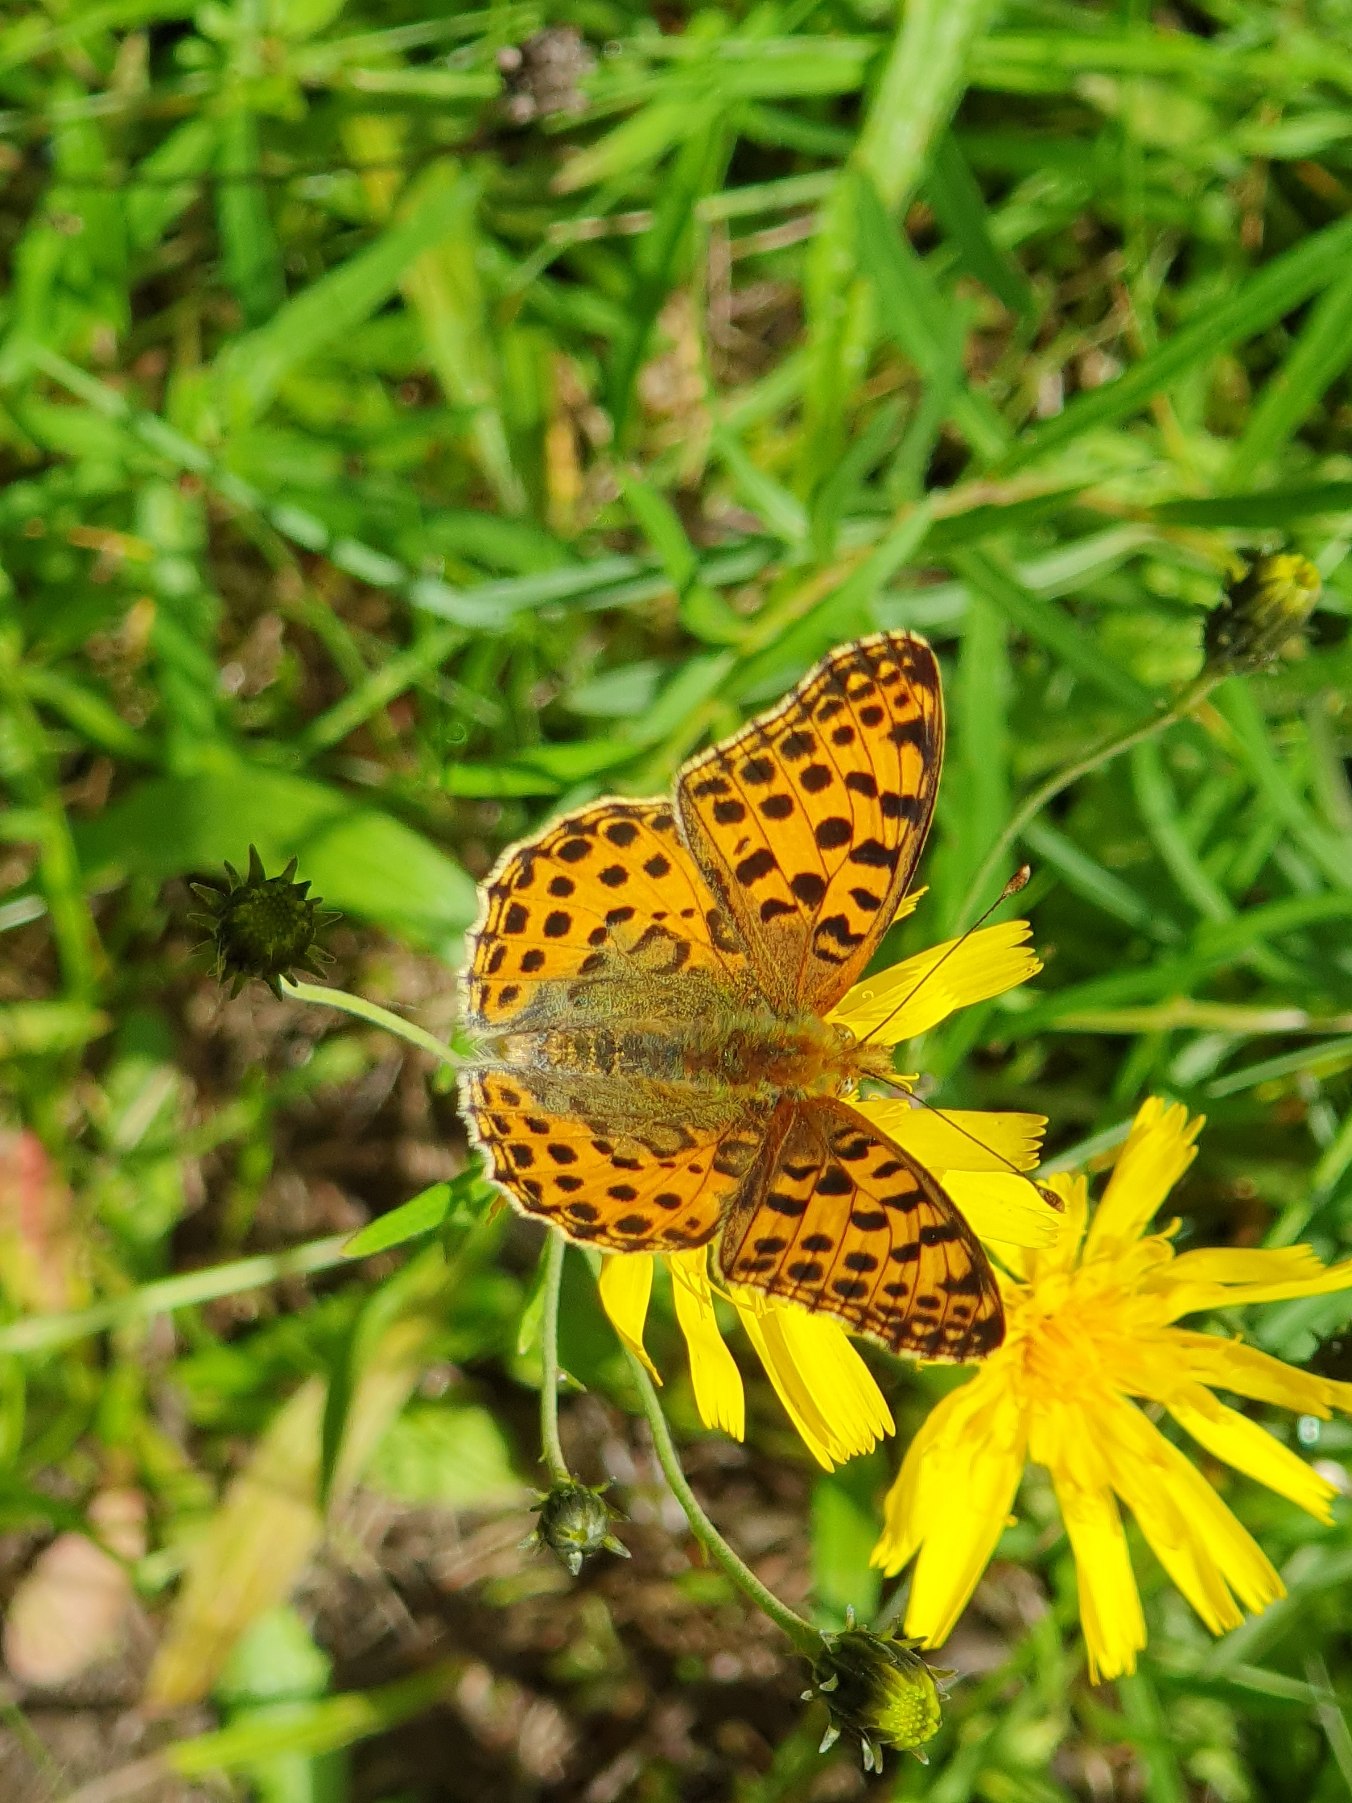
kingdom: Animalia
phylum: Arthropoda
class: Insecta
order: Lepidoptera
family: Nymphalidae
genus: Issoria
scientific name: Issoria lathonia
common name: Storplettet perlemorsommerfugl
